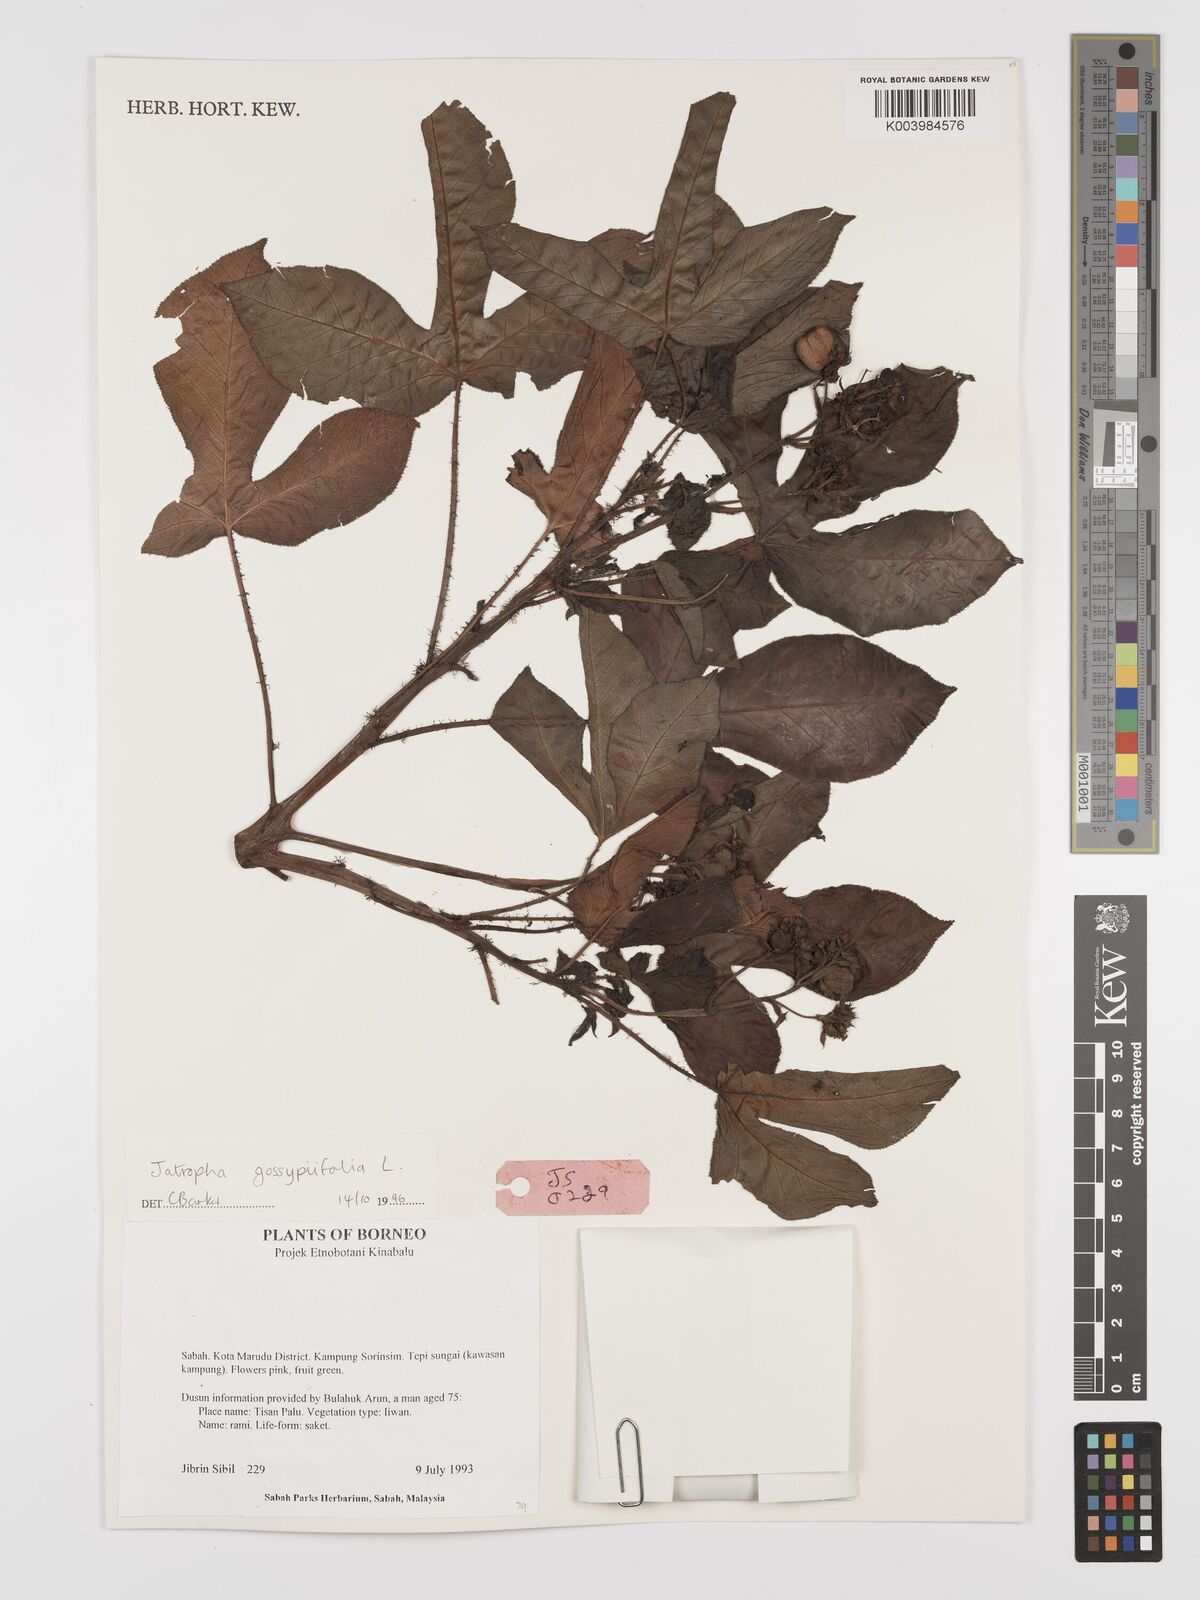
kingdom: Plantae
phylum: Tracheophyta
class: Magnoliopsida
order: Malpighiales
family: Euphorbiaceae
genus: Jatropha
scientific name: Jatropha gossypiifolia
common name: Bellyache bush
